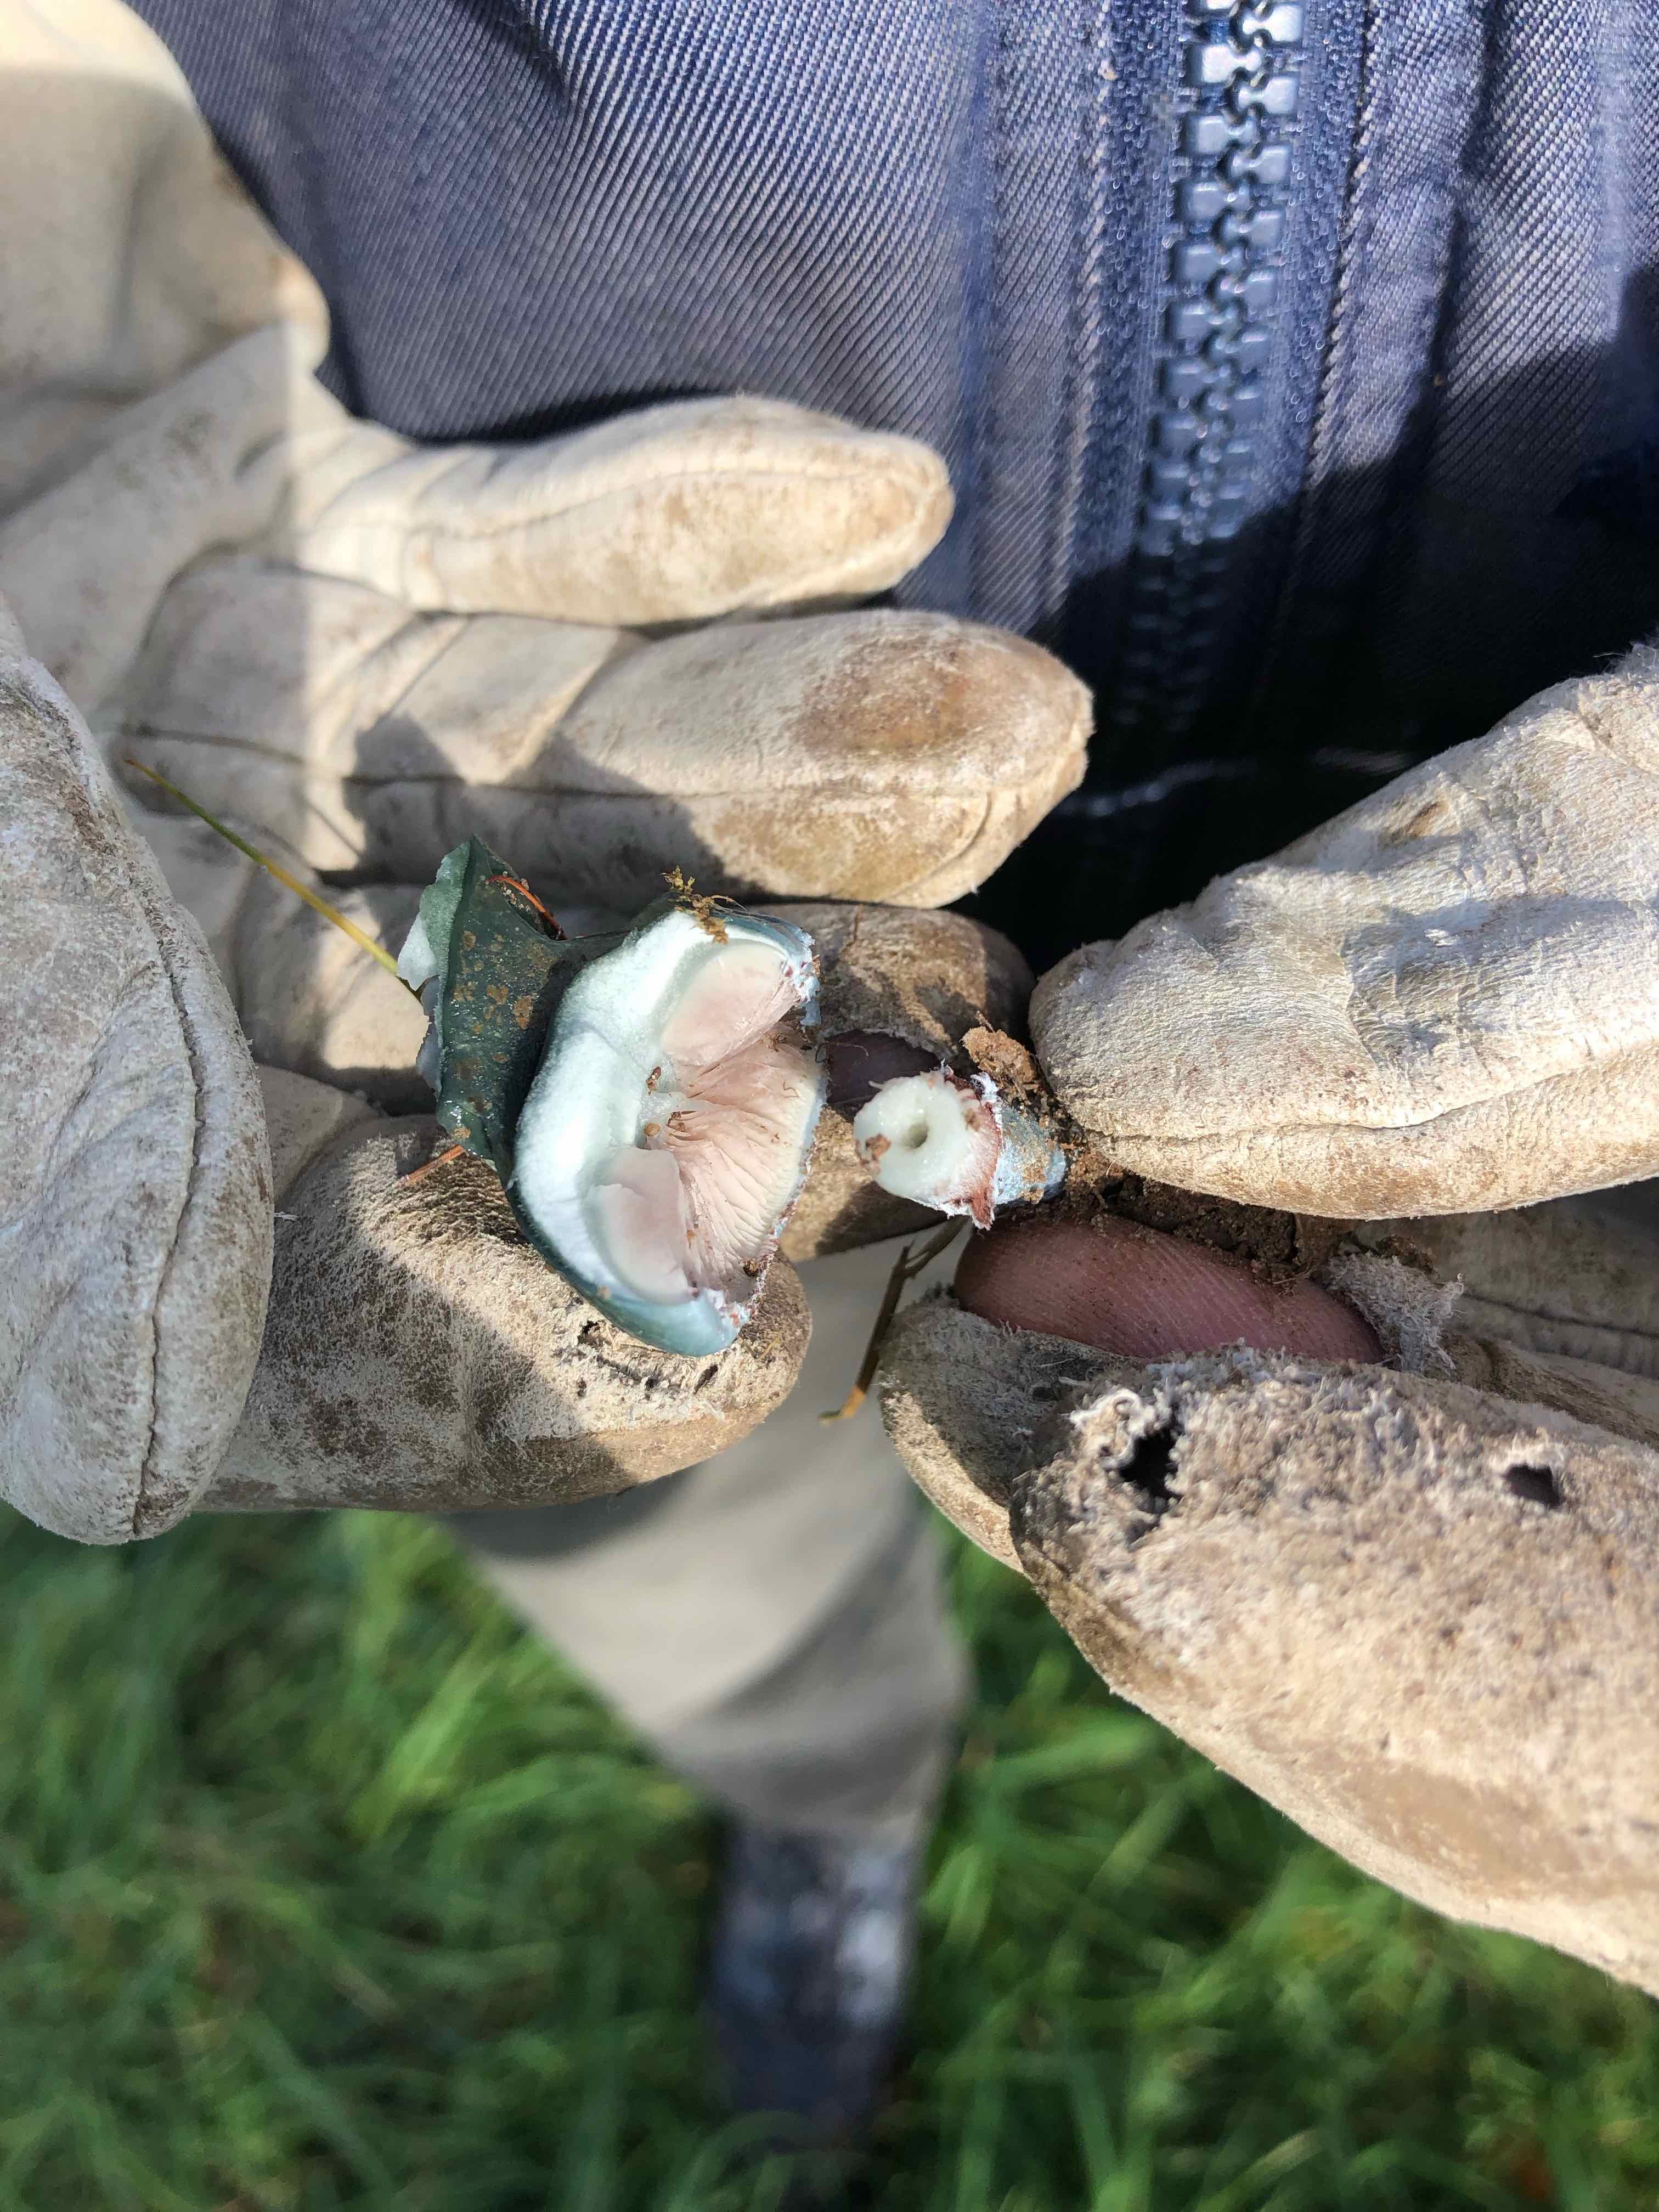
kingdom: Fungi
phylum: Basidiomycota
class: Agaricomycetes
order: Agaricales
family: Strophariaceae
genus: Stropharia
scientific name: Stropharia aeruginosa
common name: spanskgrøn bredblad
